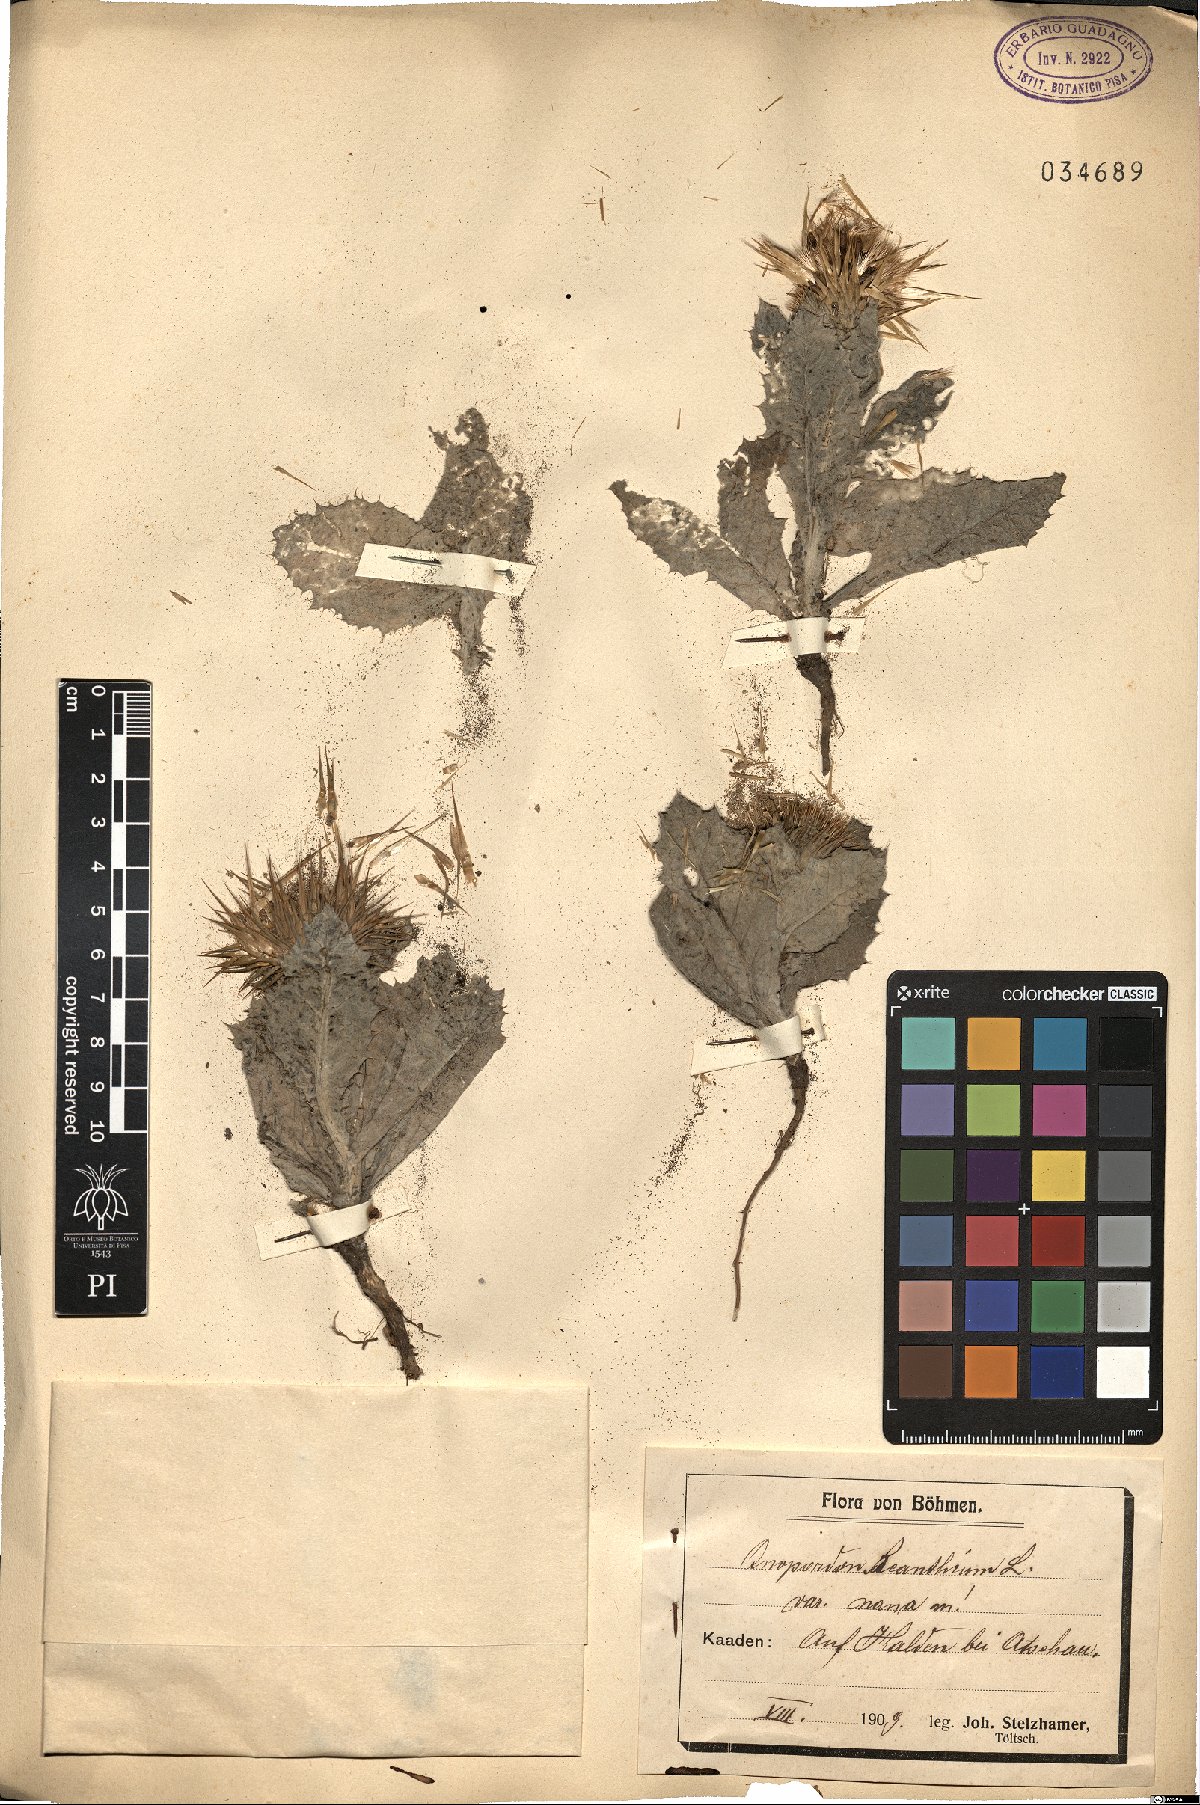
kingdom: Plantae
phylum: Tracheophyta
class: Magnoliopsida
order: Asterales
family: Asteraceae
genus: Onopordum
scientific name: Onopordum acanthium
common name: Scotch thistle
